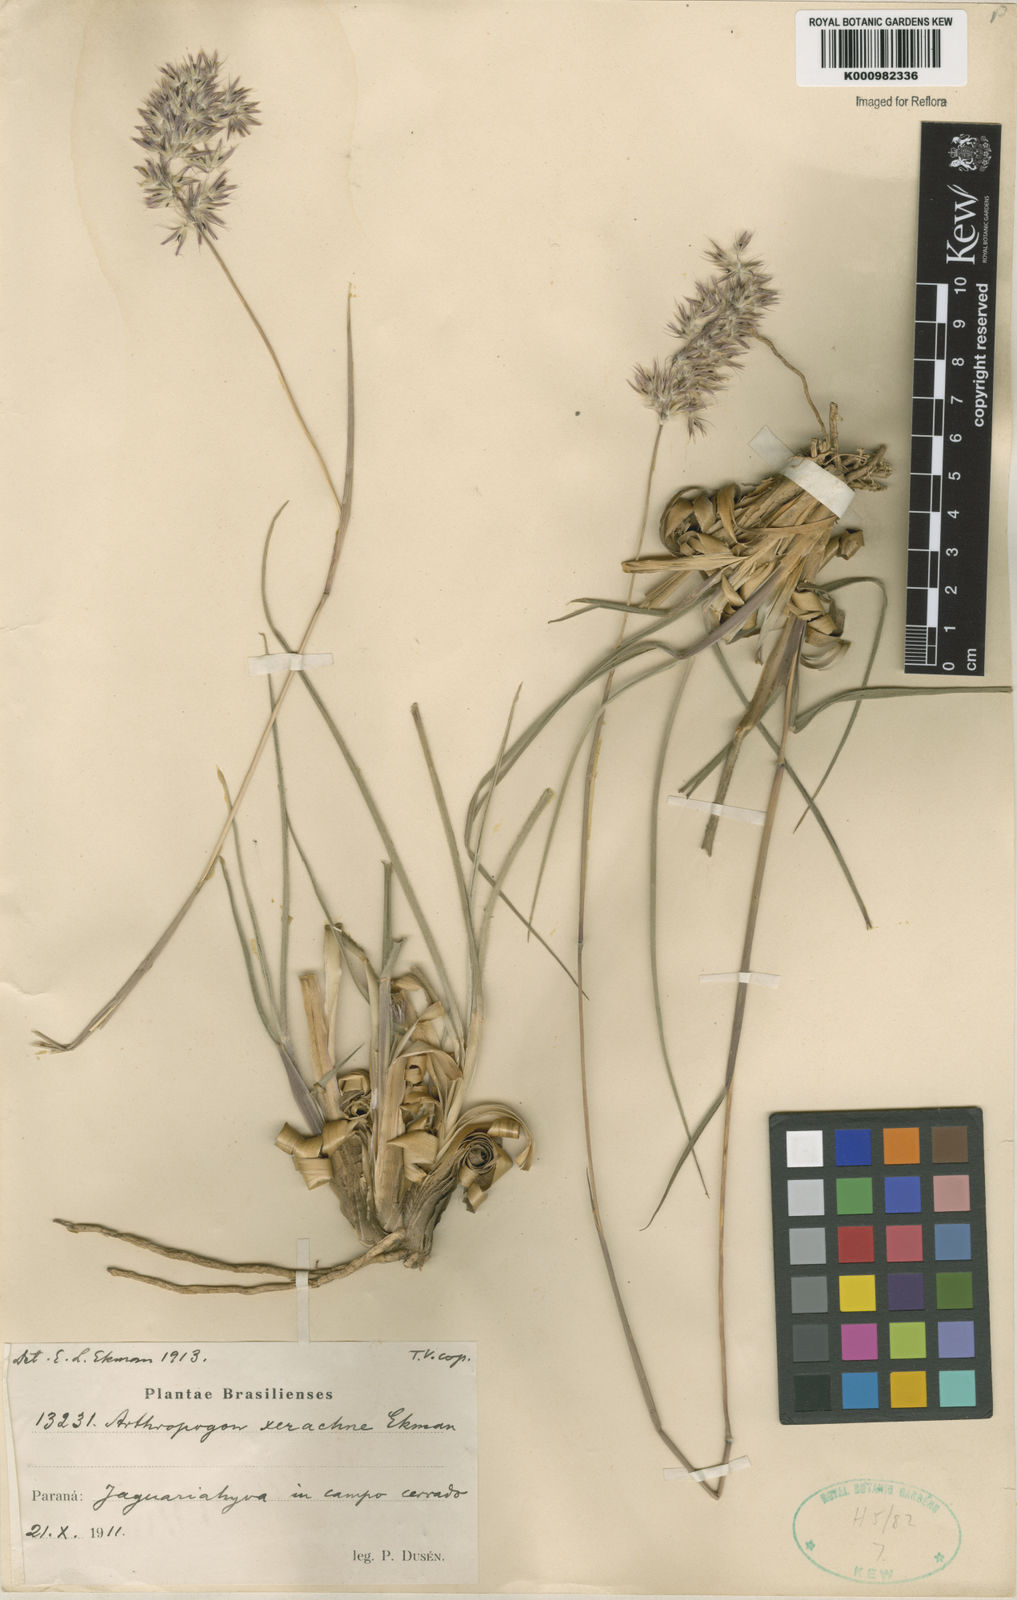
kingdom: Plantae
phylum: Tracheophyta
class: Liliopsida
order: Poales
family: Poaceae
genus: Arthropogon
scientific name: Arthropogon xerachne
